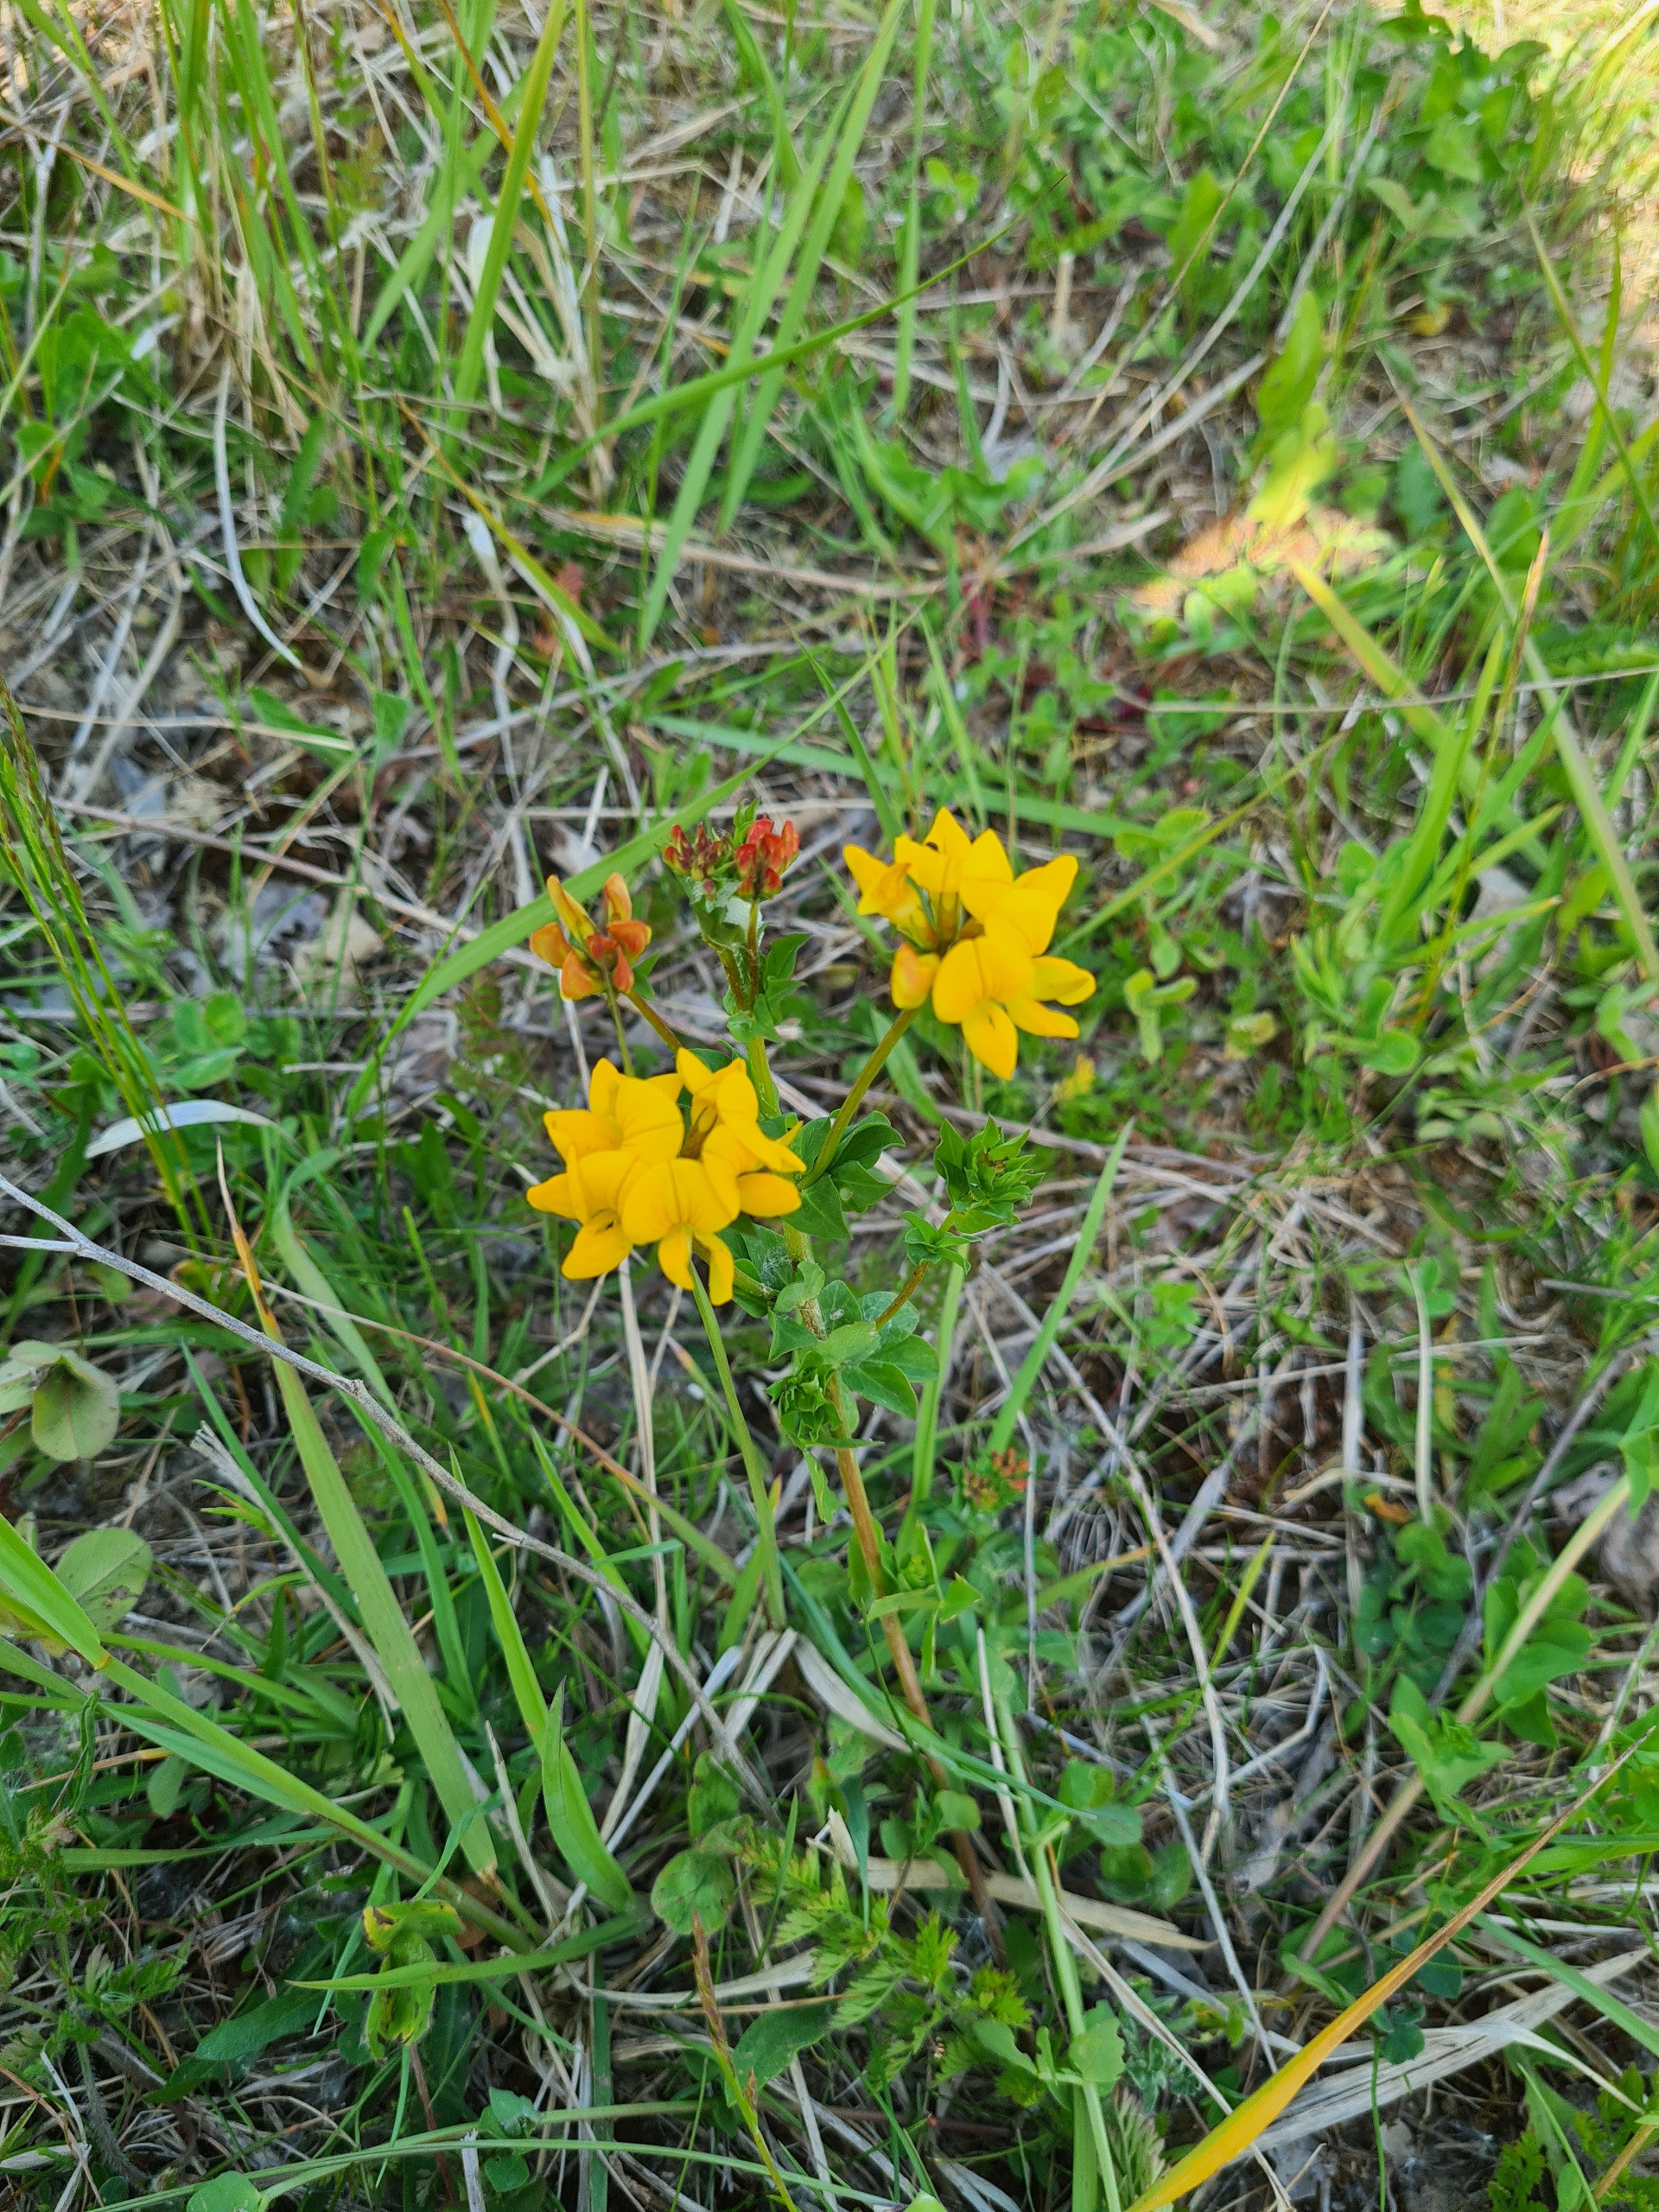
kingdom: Plantae
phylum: Tracheophyta
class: Magnoliopsida
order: Fabales
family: Fabaceae
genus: Lotus
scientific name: Lotus corniculatus
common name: Almindelig kællingetand
